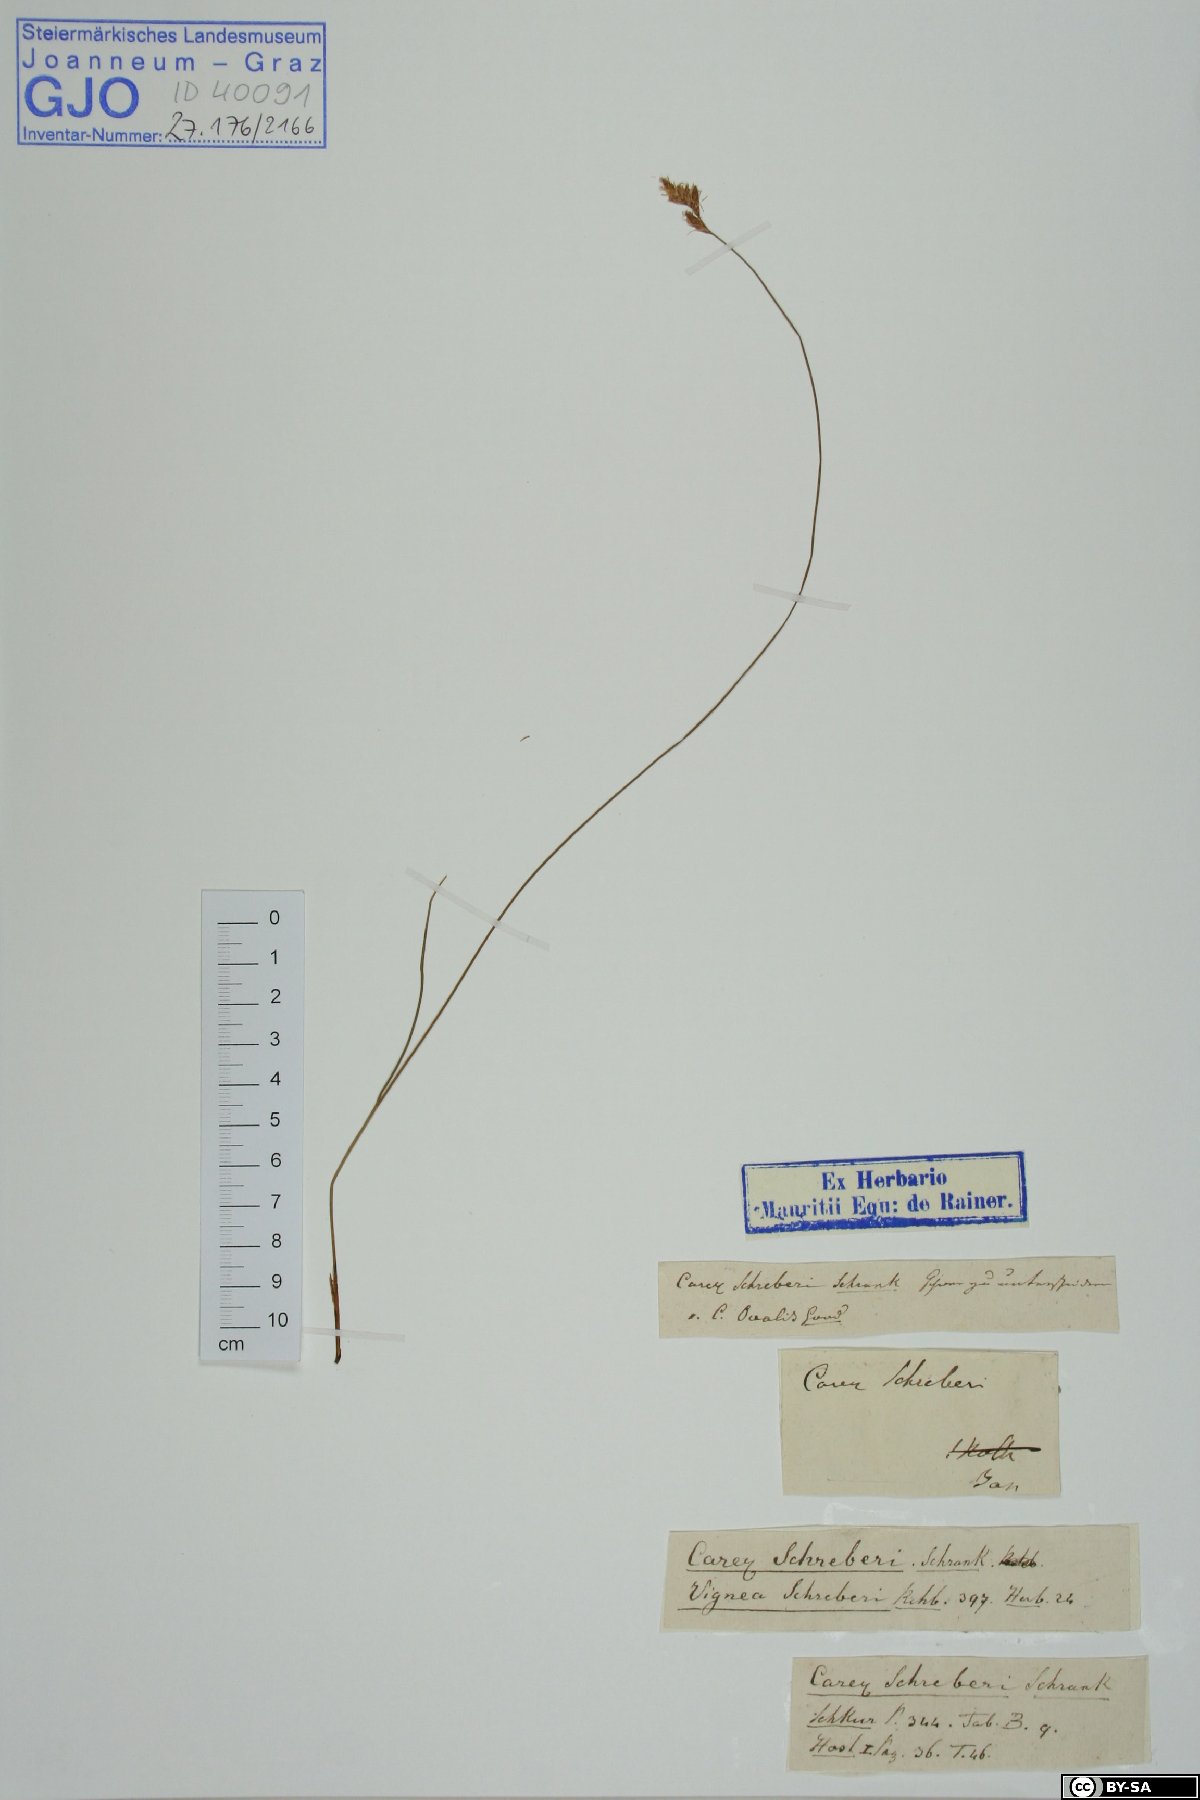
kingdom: Plantae
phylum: Tracheophyta
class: Liliopsida
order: Poales
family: Cyperaceae
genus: Carex
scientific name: Carex praecox
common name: Early sedge
